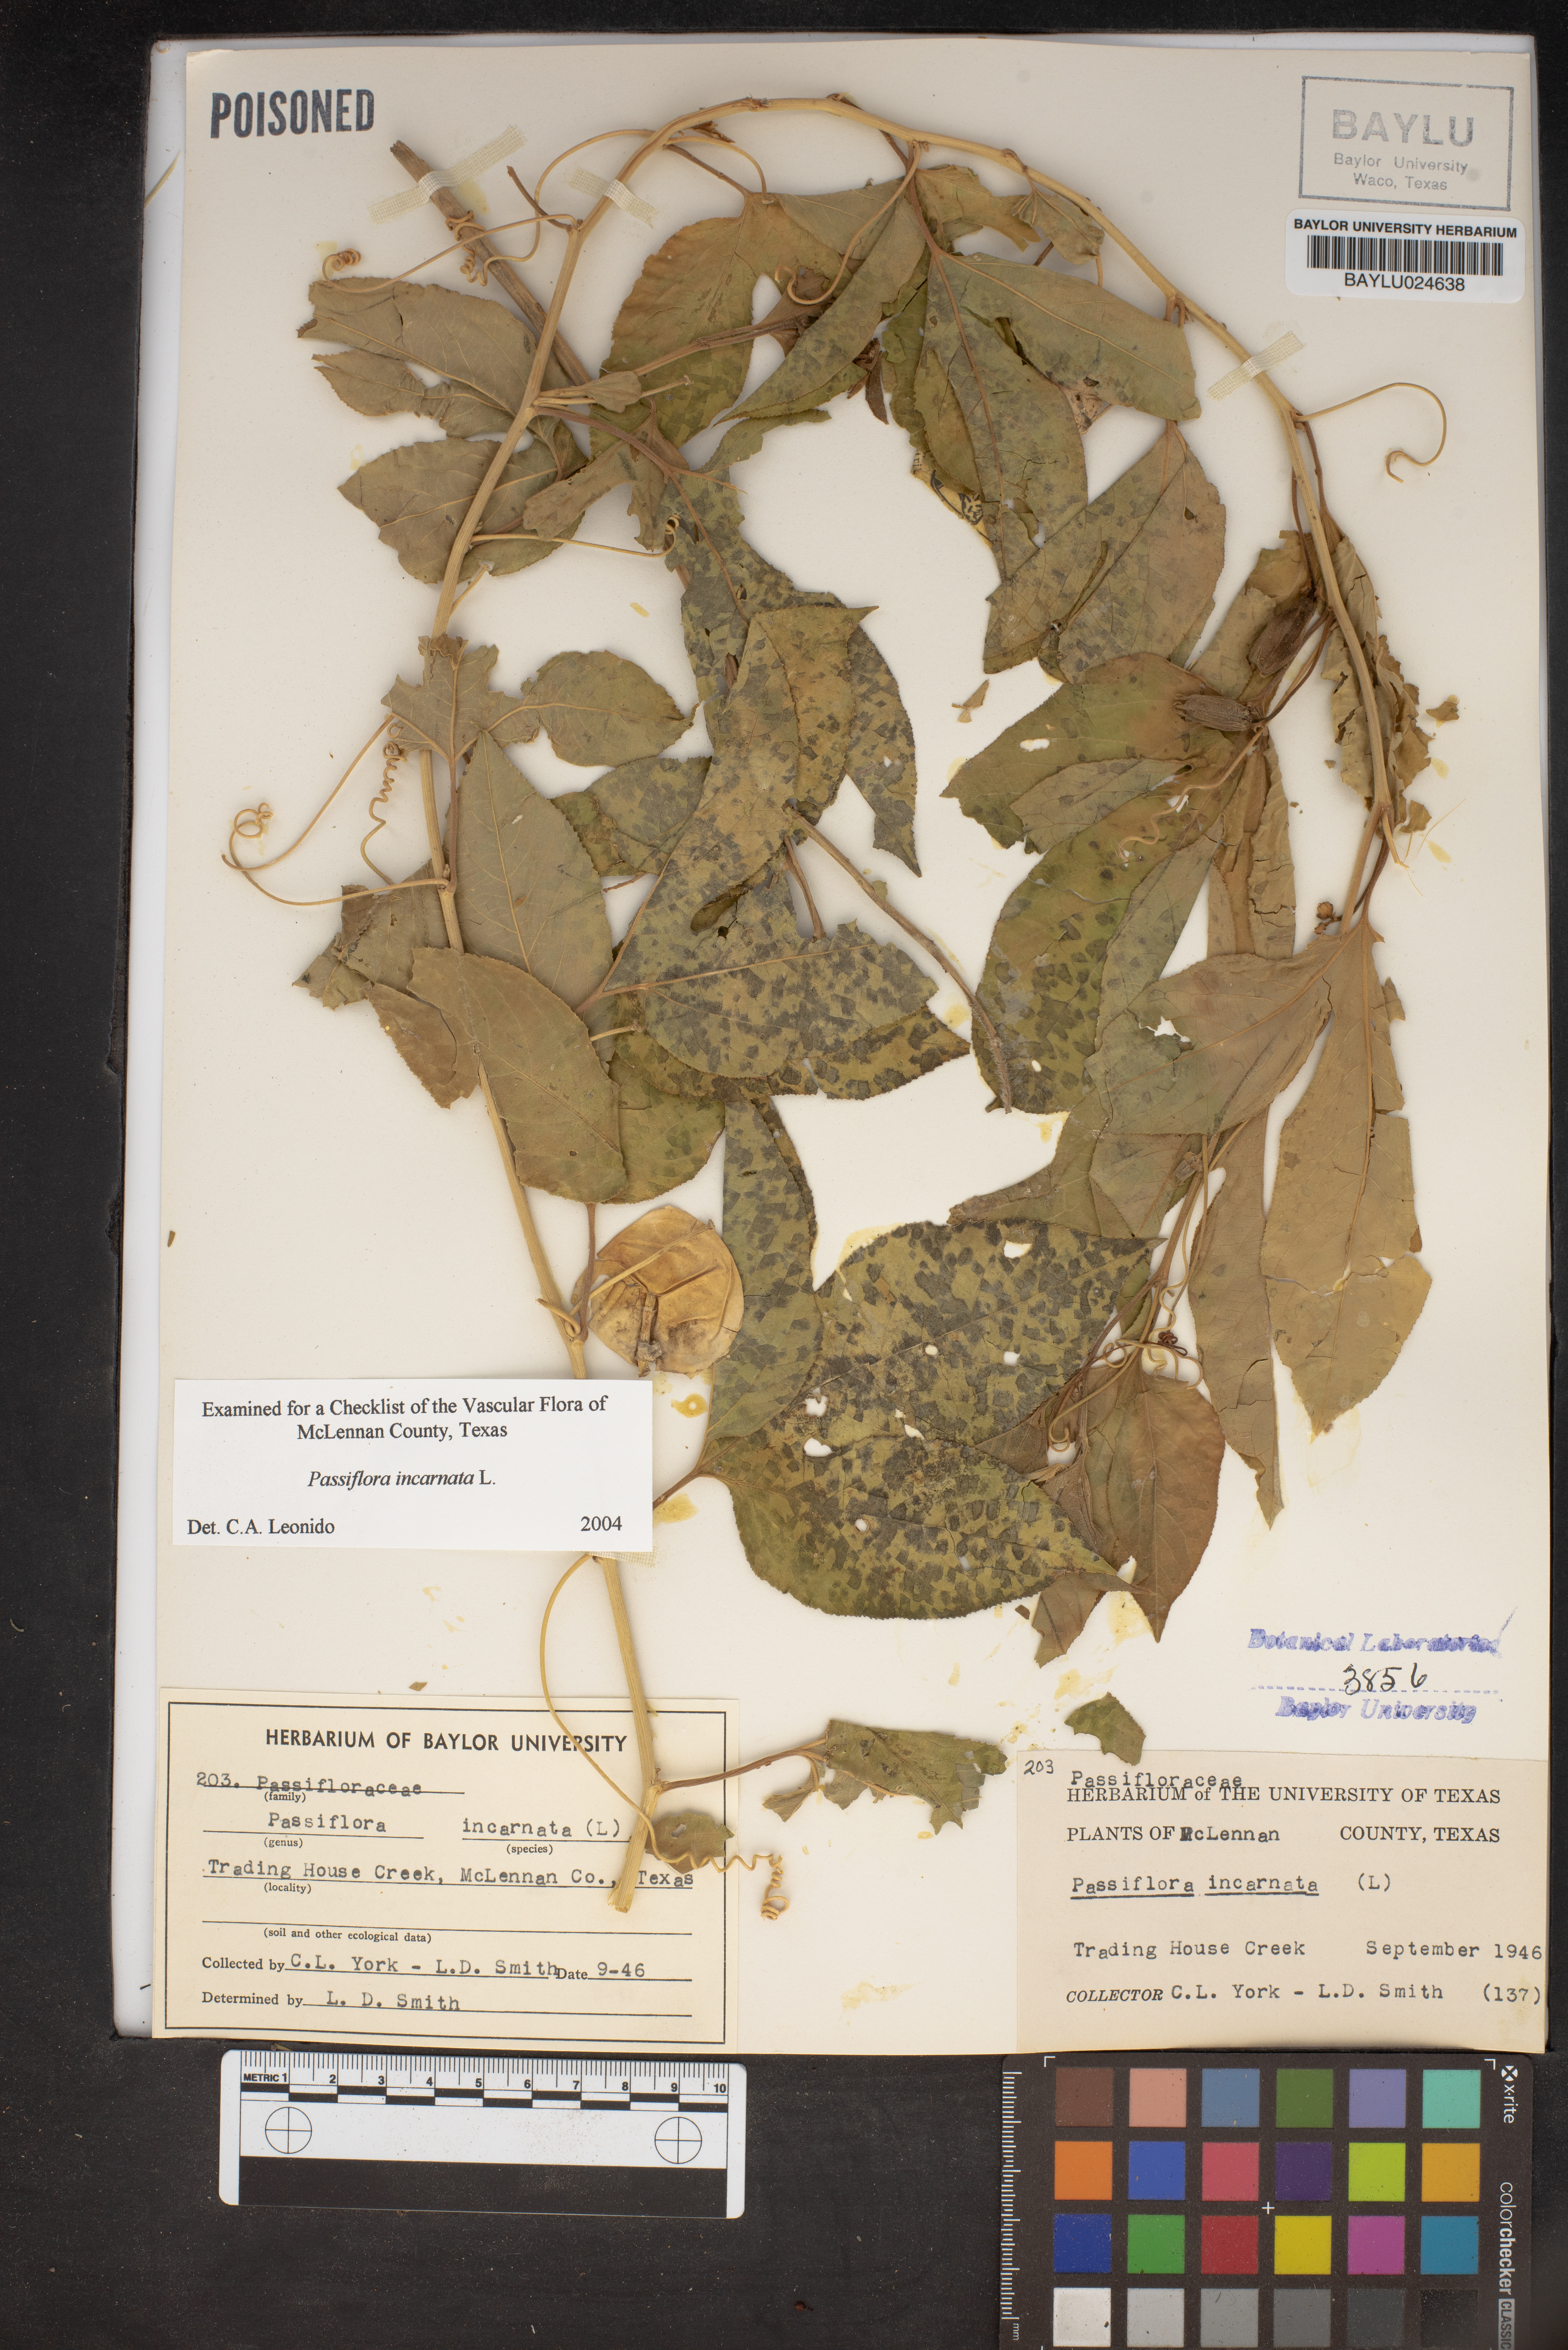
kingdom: Plantae
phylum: Tracheophyta
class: Magnoliopsida
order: Malpighiales
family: Passifloraceae
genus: Passiflora
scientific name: Passiflora incarnata
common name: Apricot-vine
